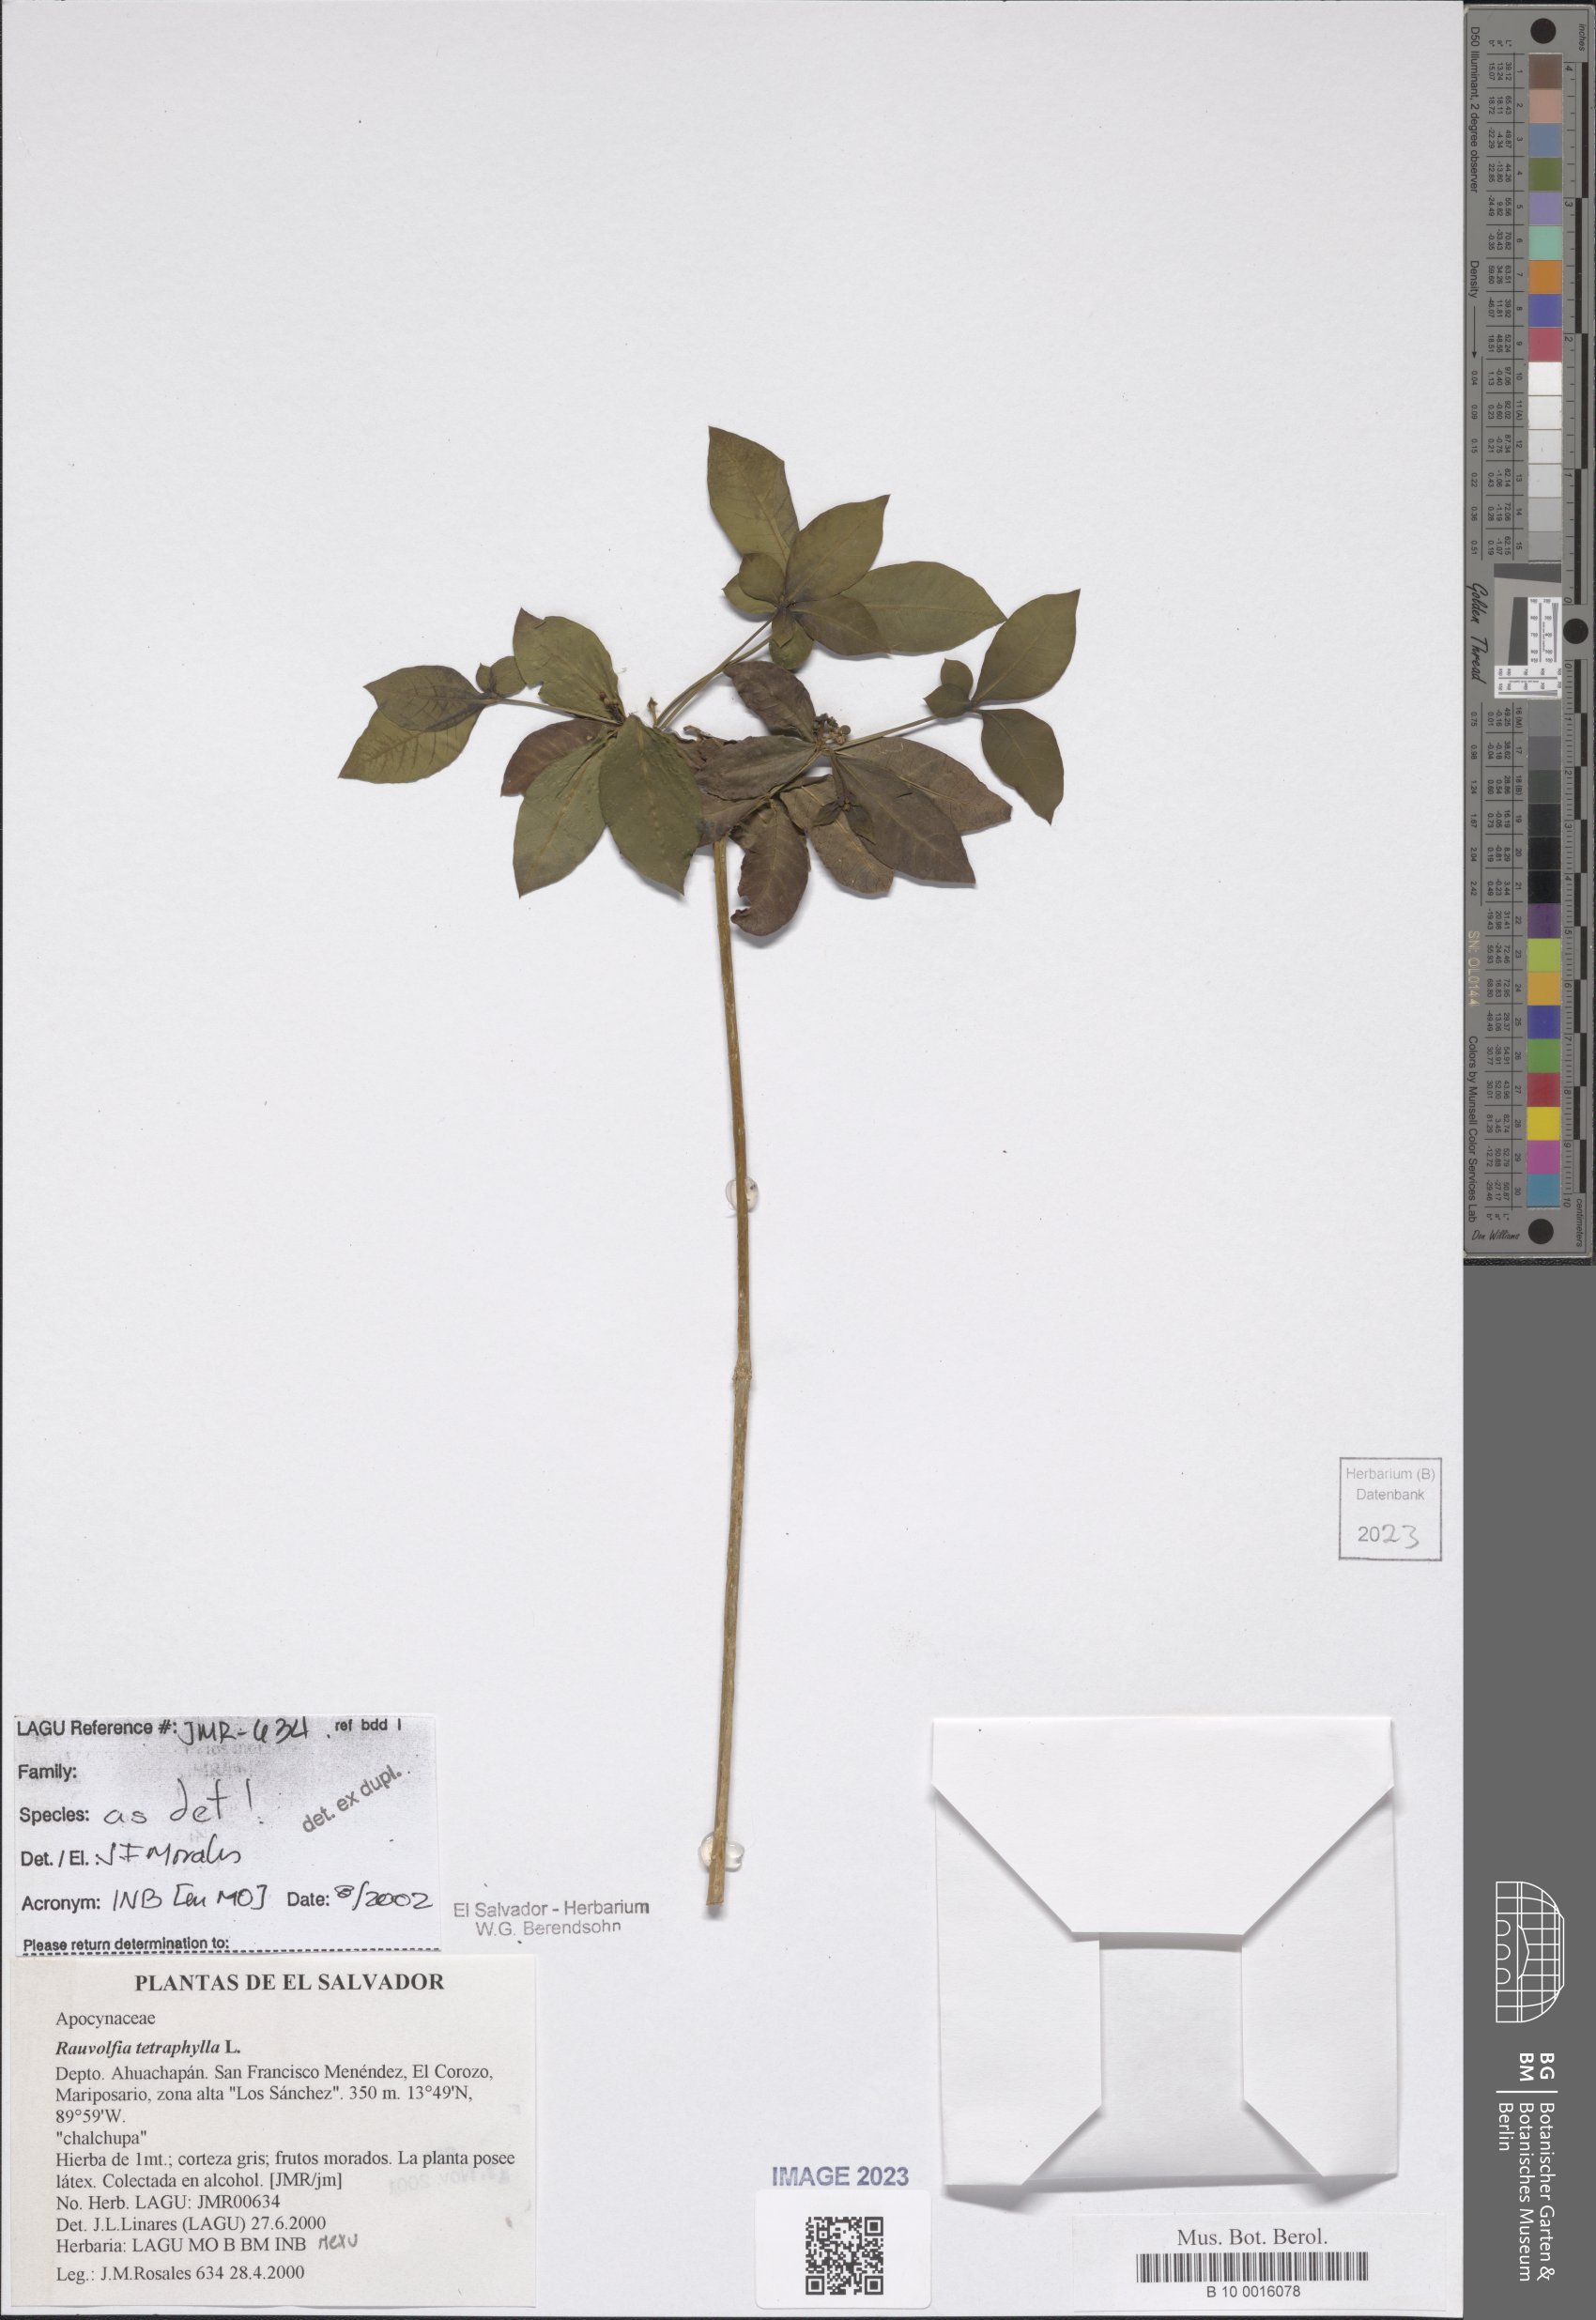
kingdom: Plantae
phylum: Tracheophyta
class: Magnoliopsida
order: Gentianales
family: Apocynaceae
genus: Rauvolfia
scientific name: Rauvolfia tetraphylla
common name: Four-leaf devil-pepper
